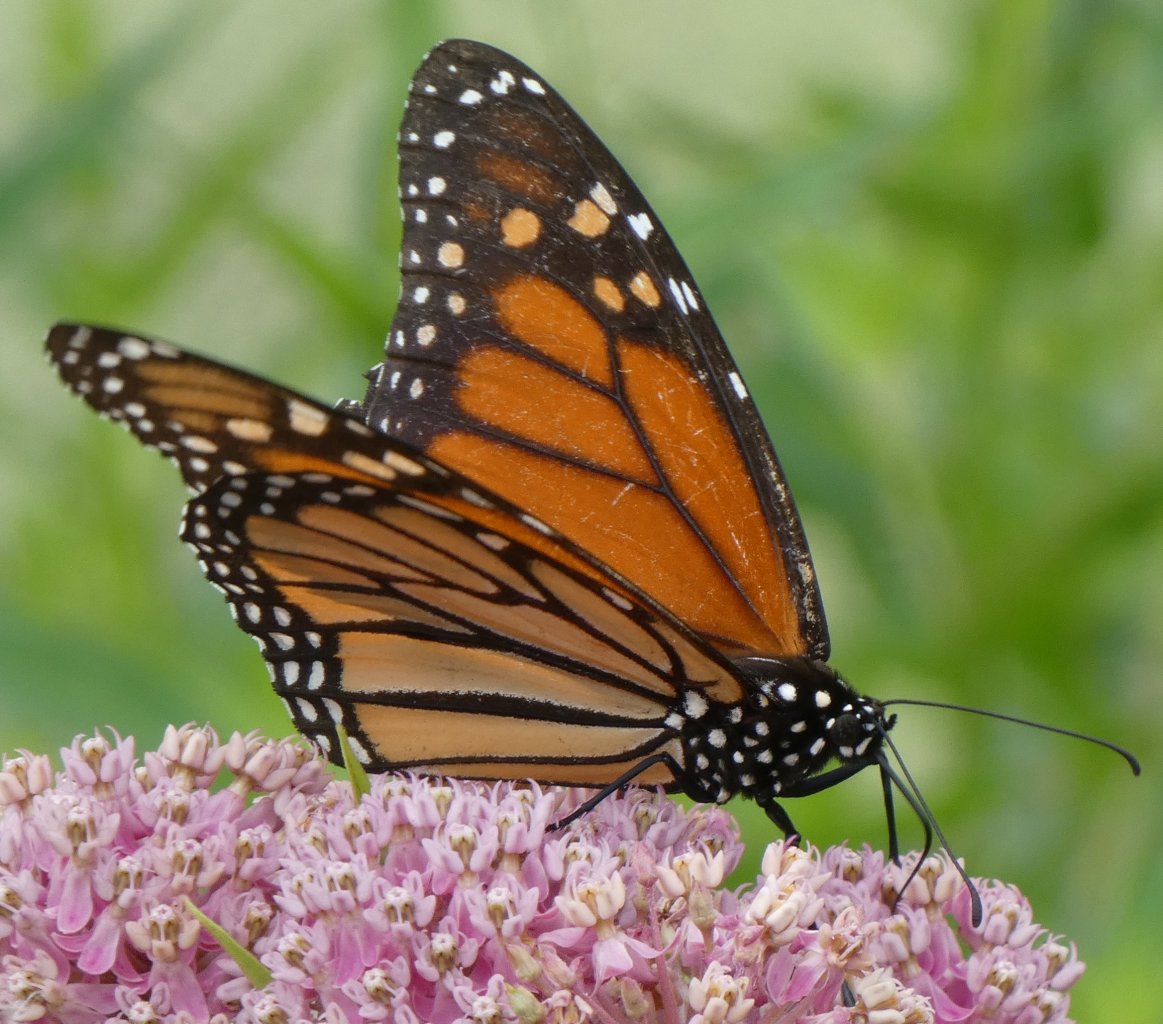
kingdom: Animalia
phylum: Arthropoda
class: Insecta
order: Lepidoptera
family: Nymphalidae
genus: Danaus
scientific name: Danaus plexippus
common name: Monarch
